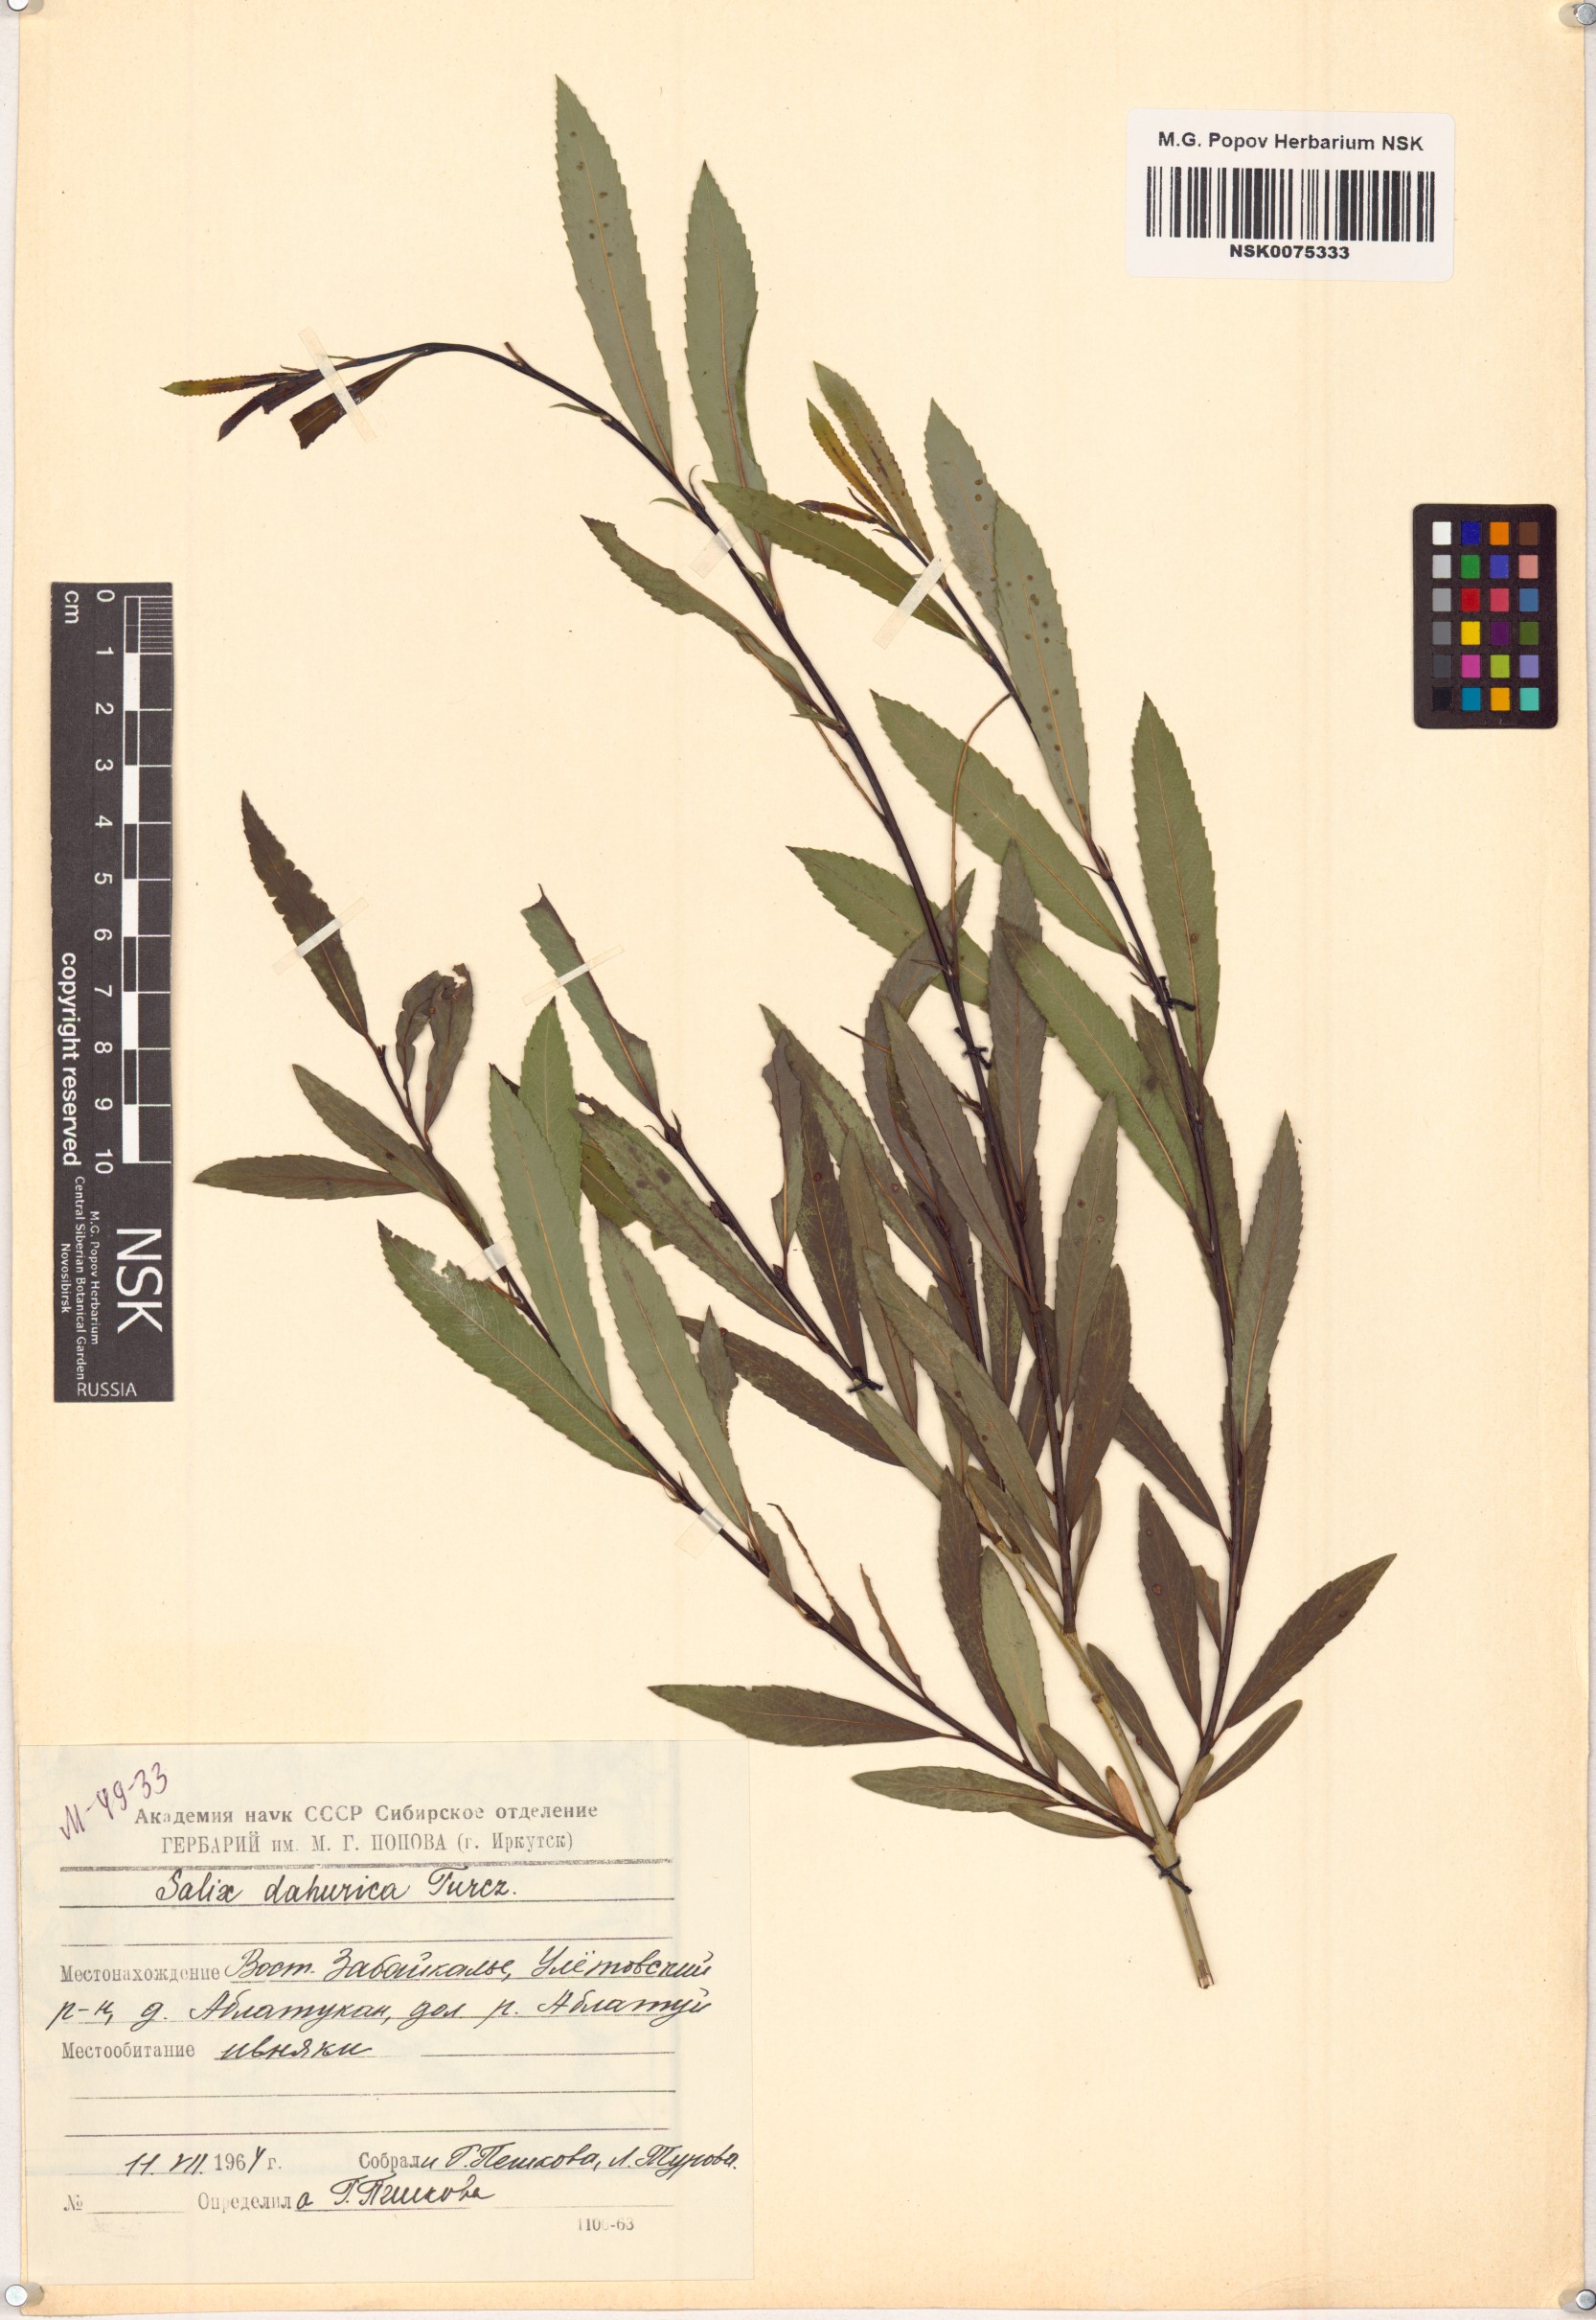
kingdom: Plantae
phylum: Tracheophyta
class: Magnoliopsida
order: Malpighiales
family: Salicaceae
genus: Salix
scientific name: Salix
